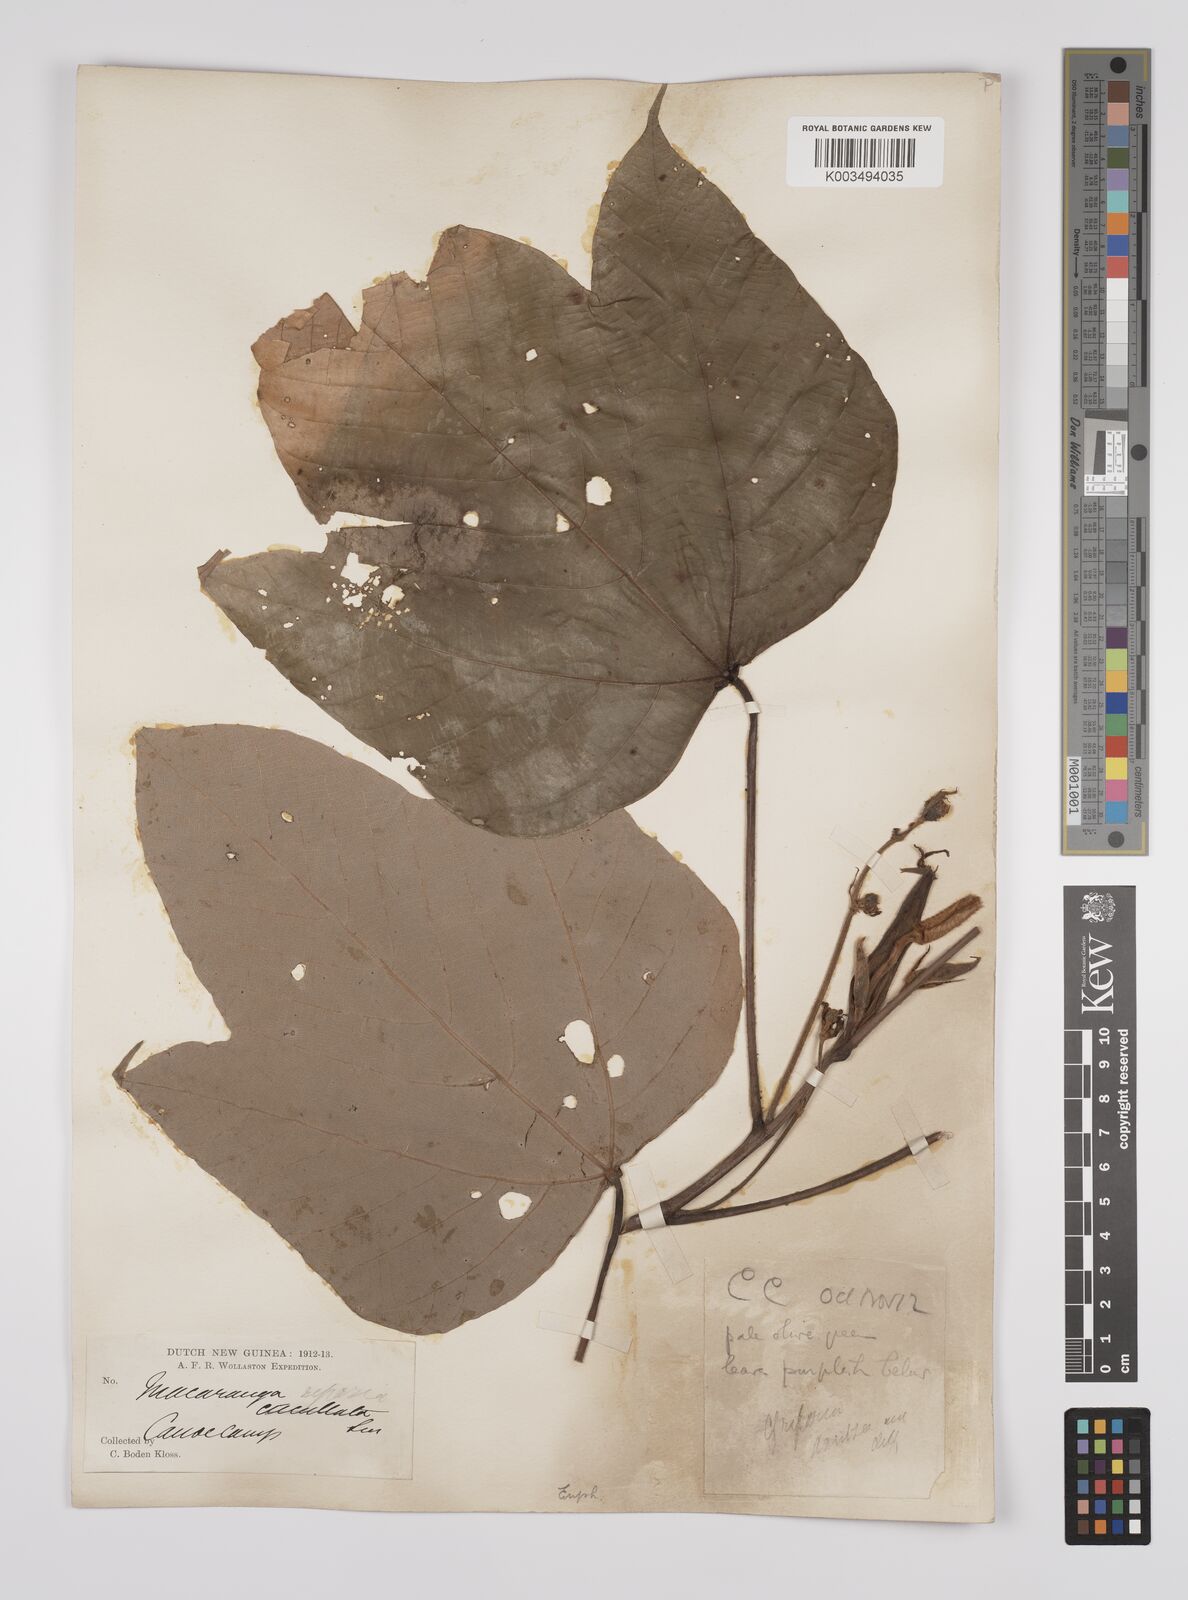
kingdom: Plantae
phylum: Tracheophyta
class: Magnoliopsida
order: Malpighiales
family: Euphorbiaceae
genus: Macaranga
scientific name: Macaranga aleuritoides
